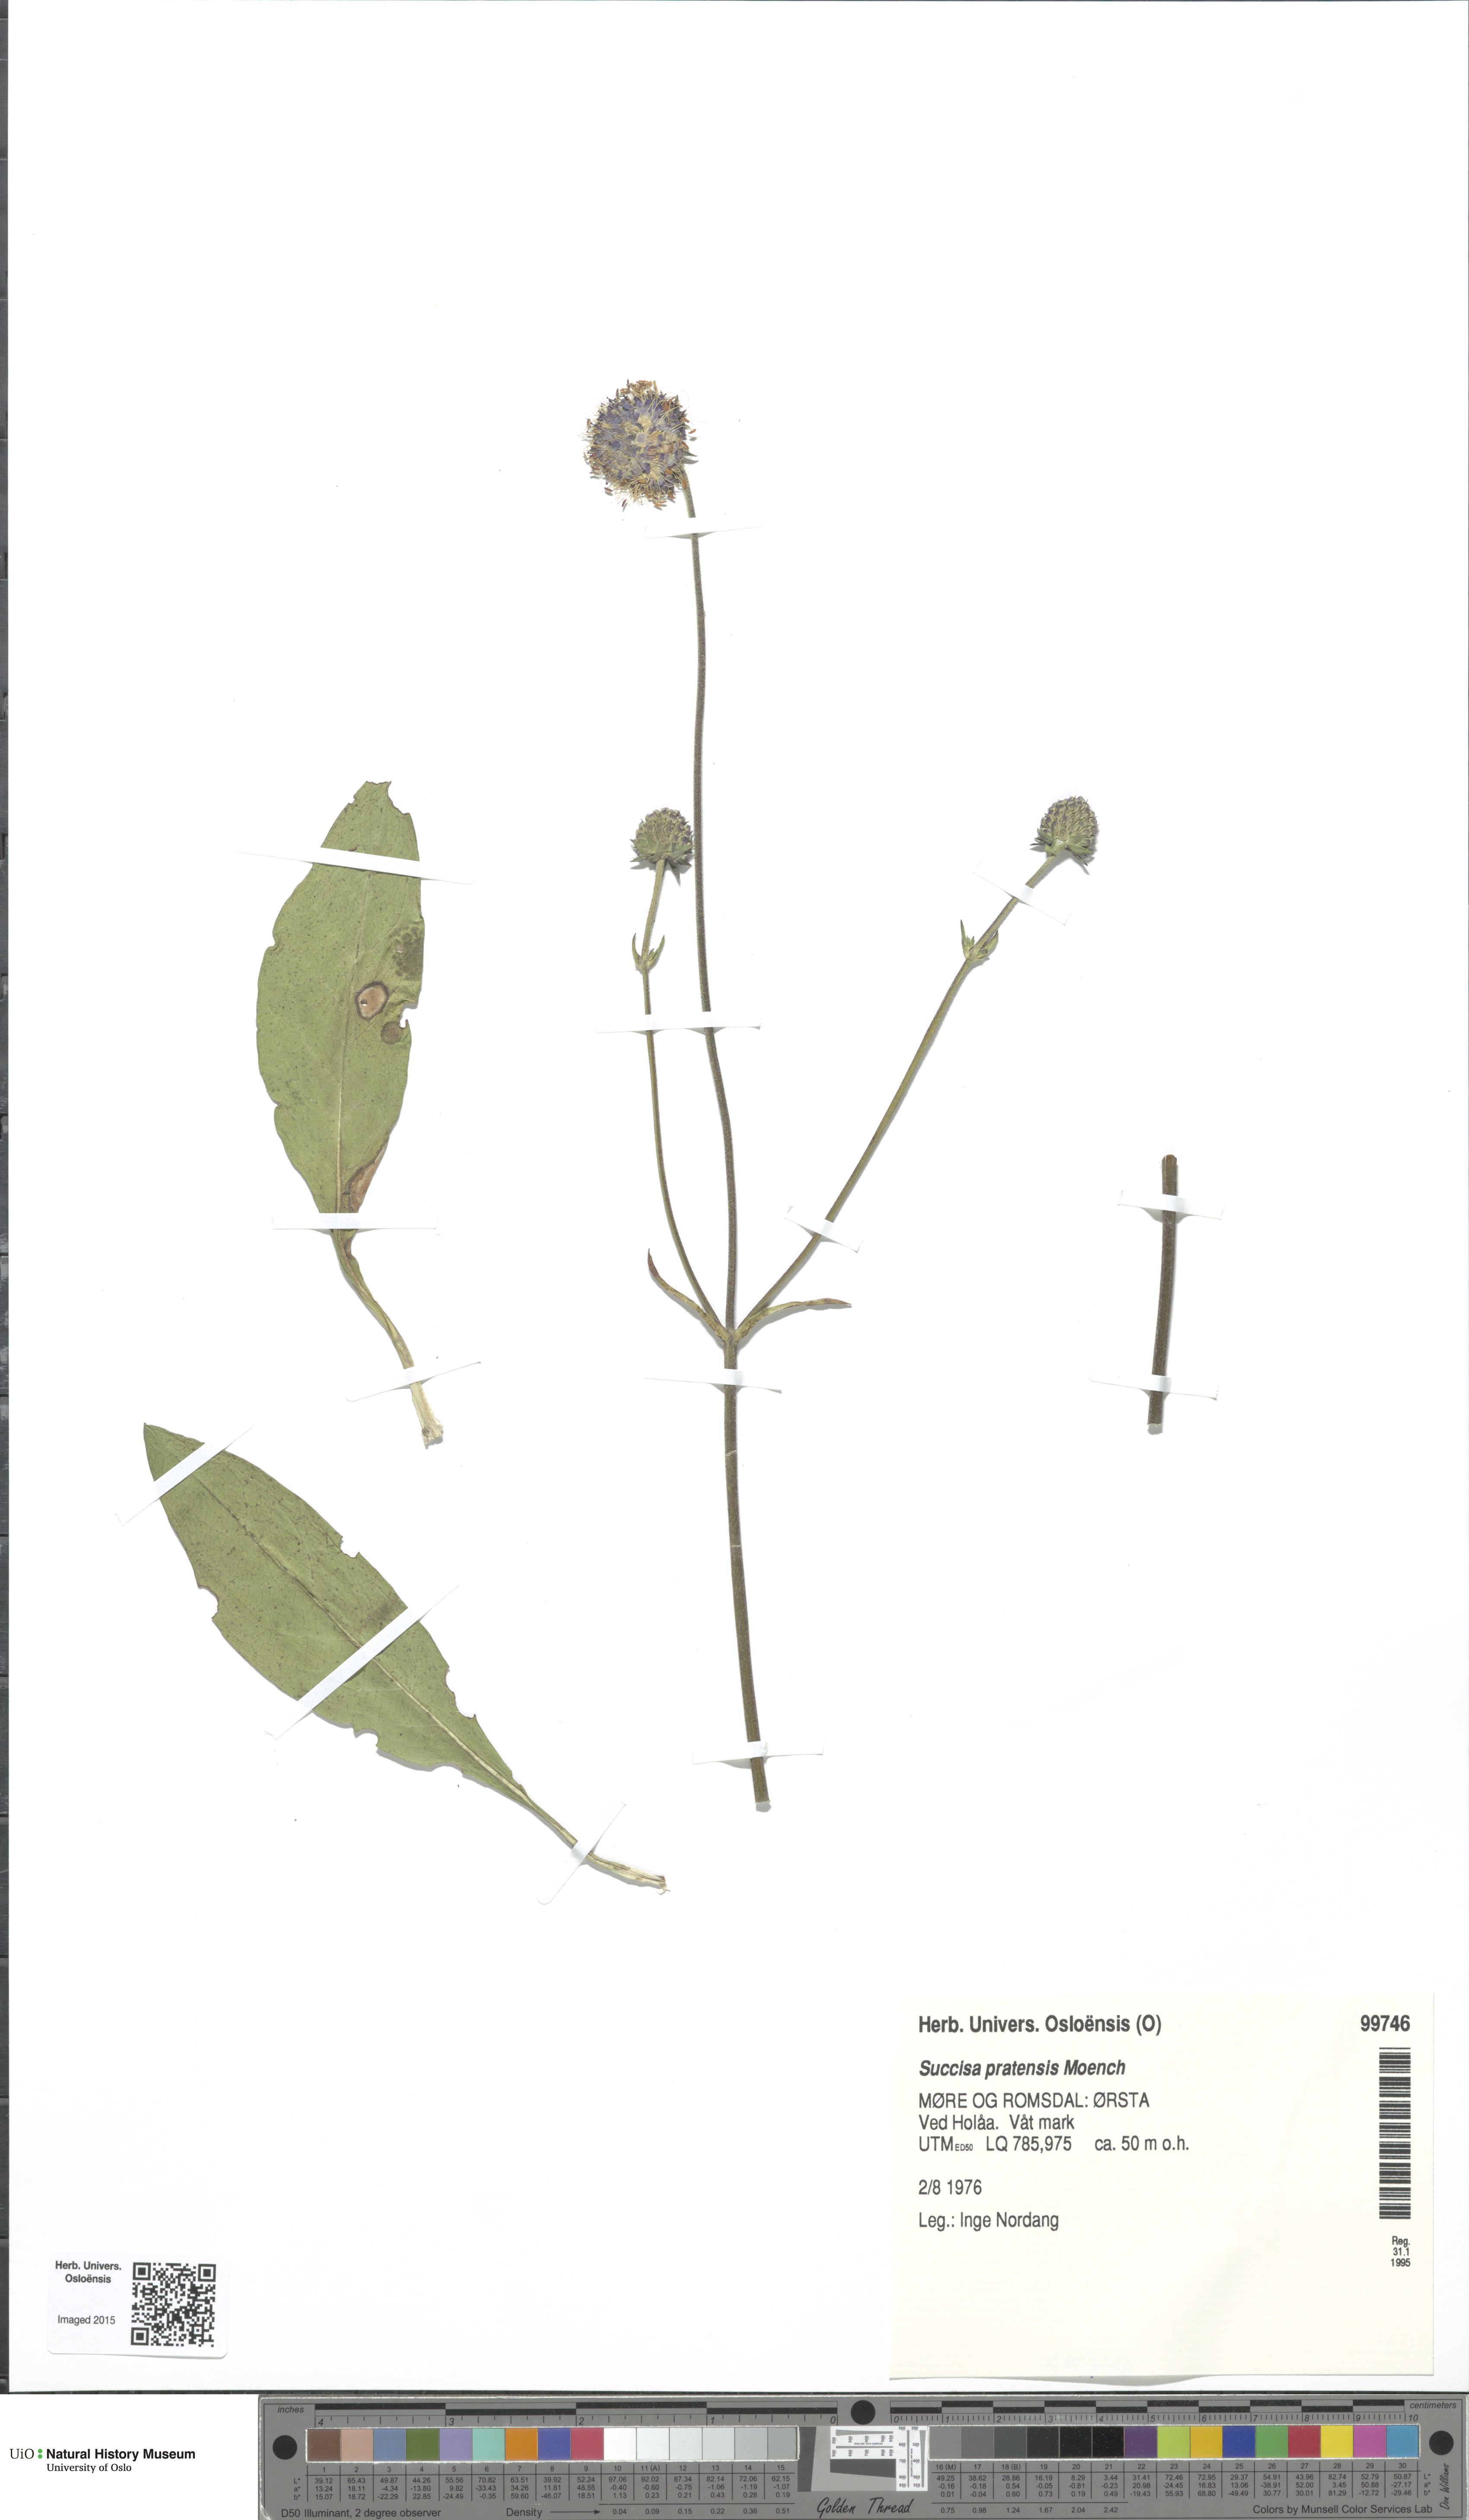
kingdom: Plantae
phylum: Tracheophyta
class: Magnoliopsida
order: Dipsacales
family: Caprifoliaceae
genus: Succisa
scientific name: Succisa pratensis
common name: Devil's-bit
